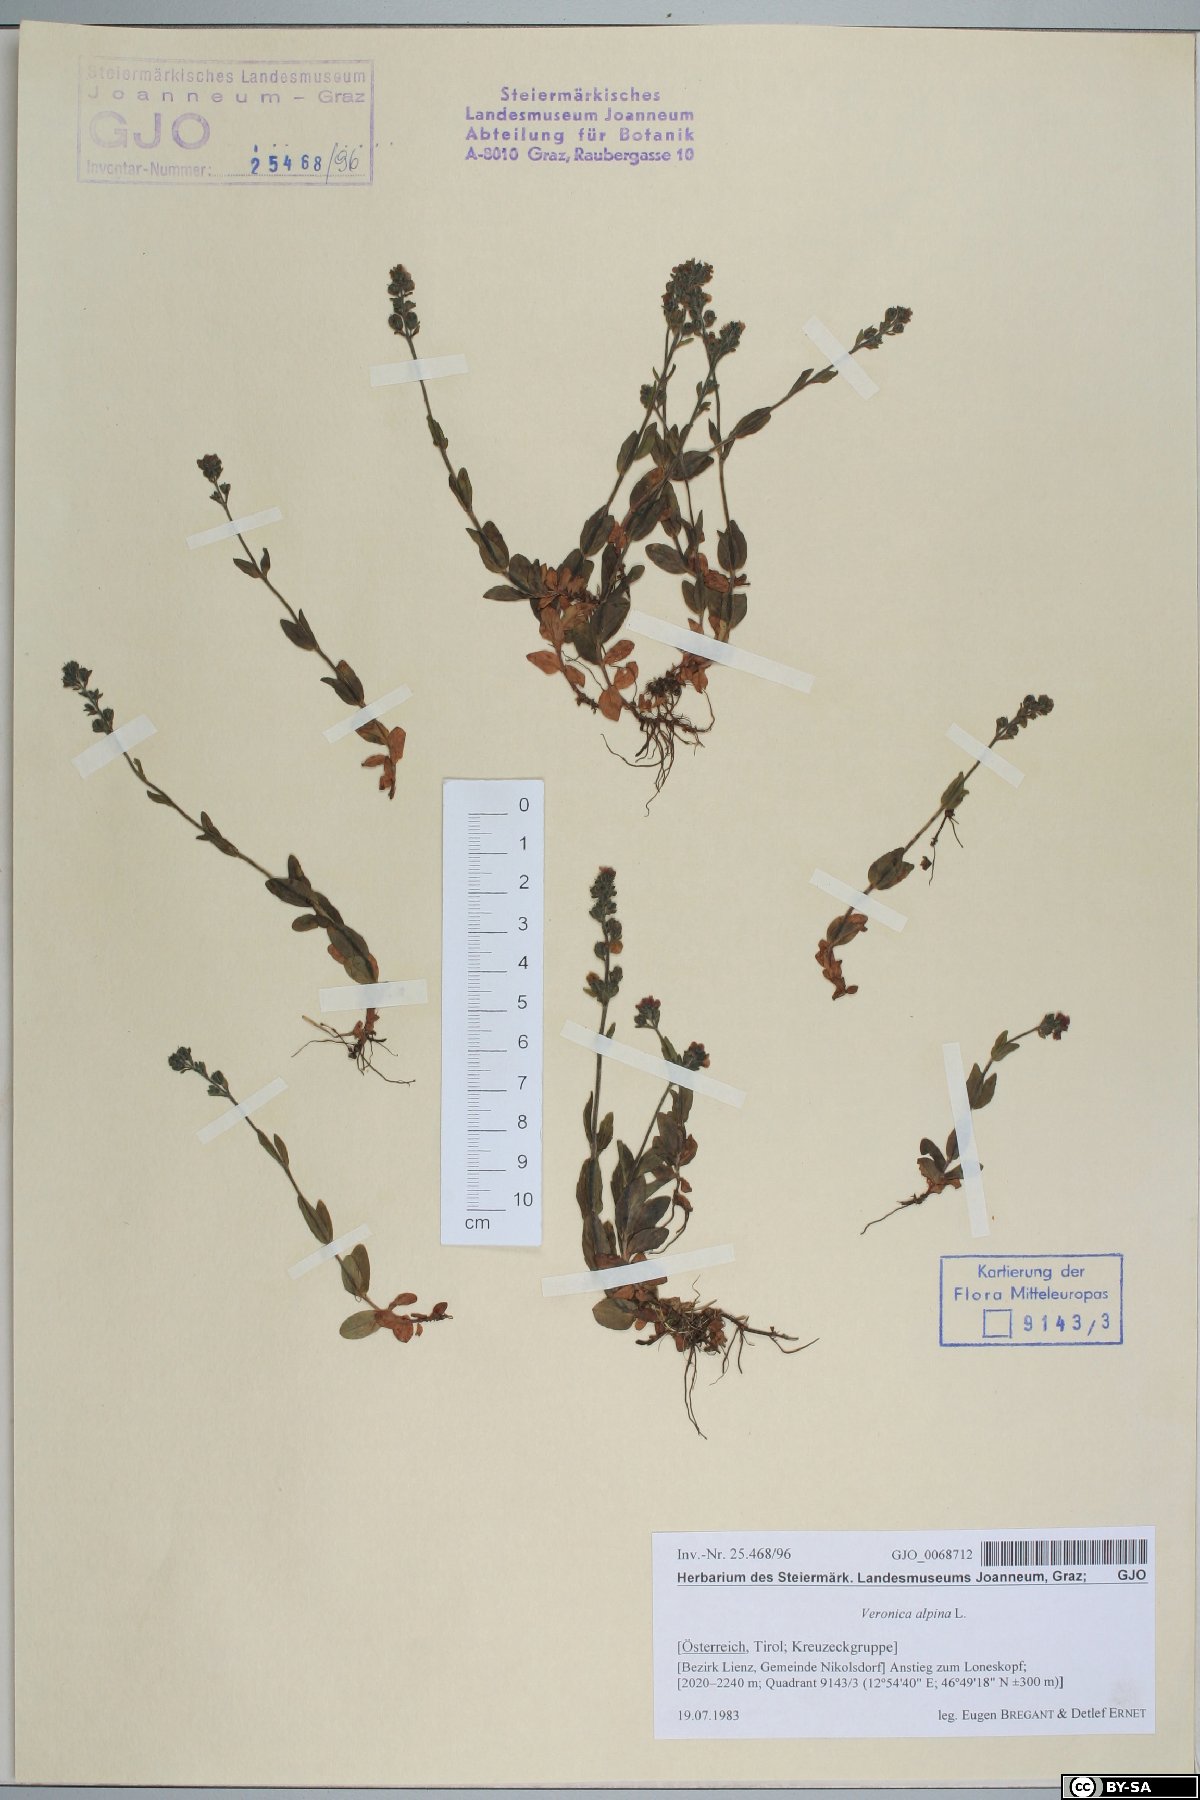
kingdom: Plantae
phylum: Tracheophyta
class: Magnoliopsida
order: Lamiales
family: Plantaginaceae
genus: Veronica
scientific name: Veronica alpina
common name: Alpine speedwell
